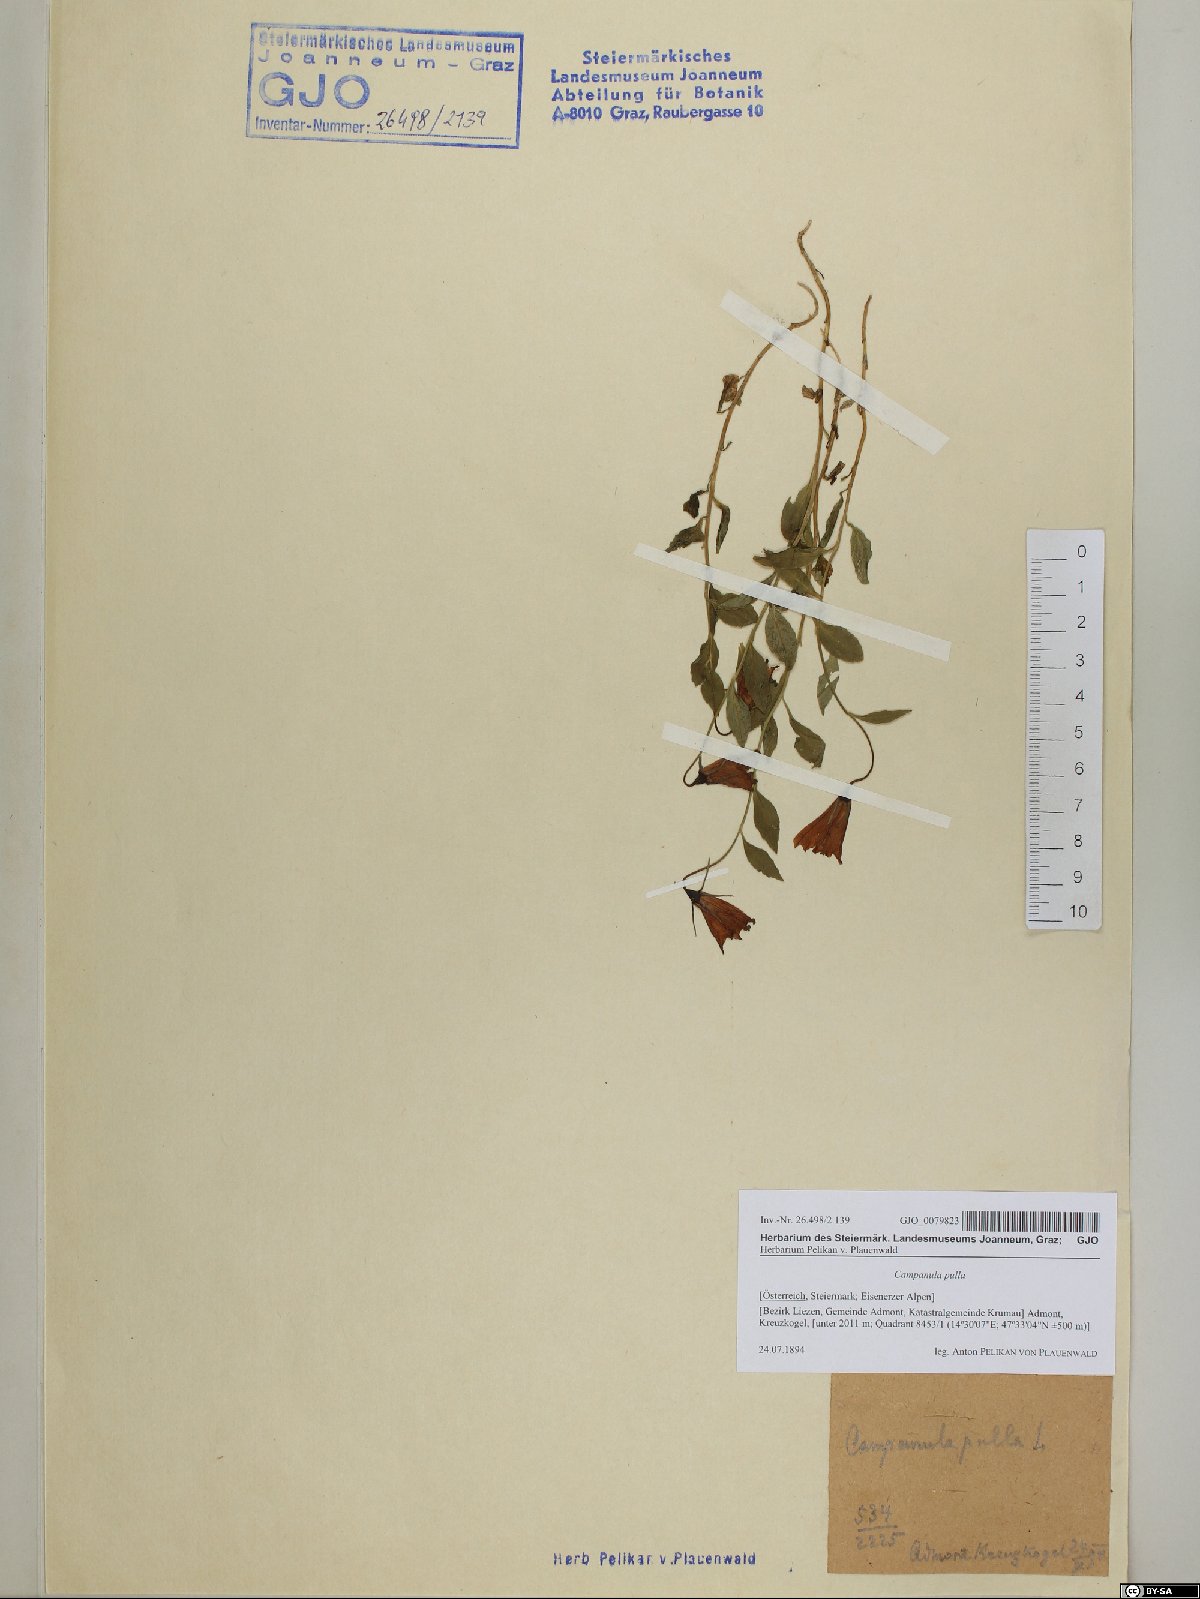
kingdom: Plantae
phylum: Tracheophyta
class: Magnoliopsida
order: Asterales
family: Campanulaceae
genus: Campanula
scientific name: Campanula pulla
